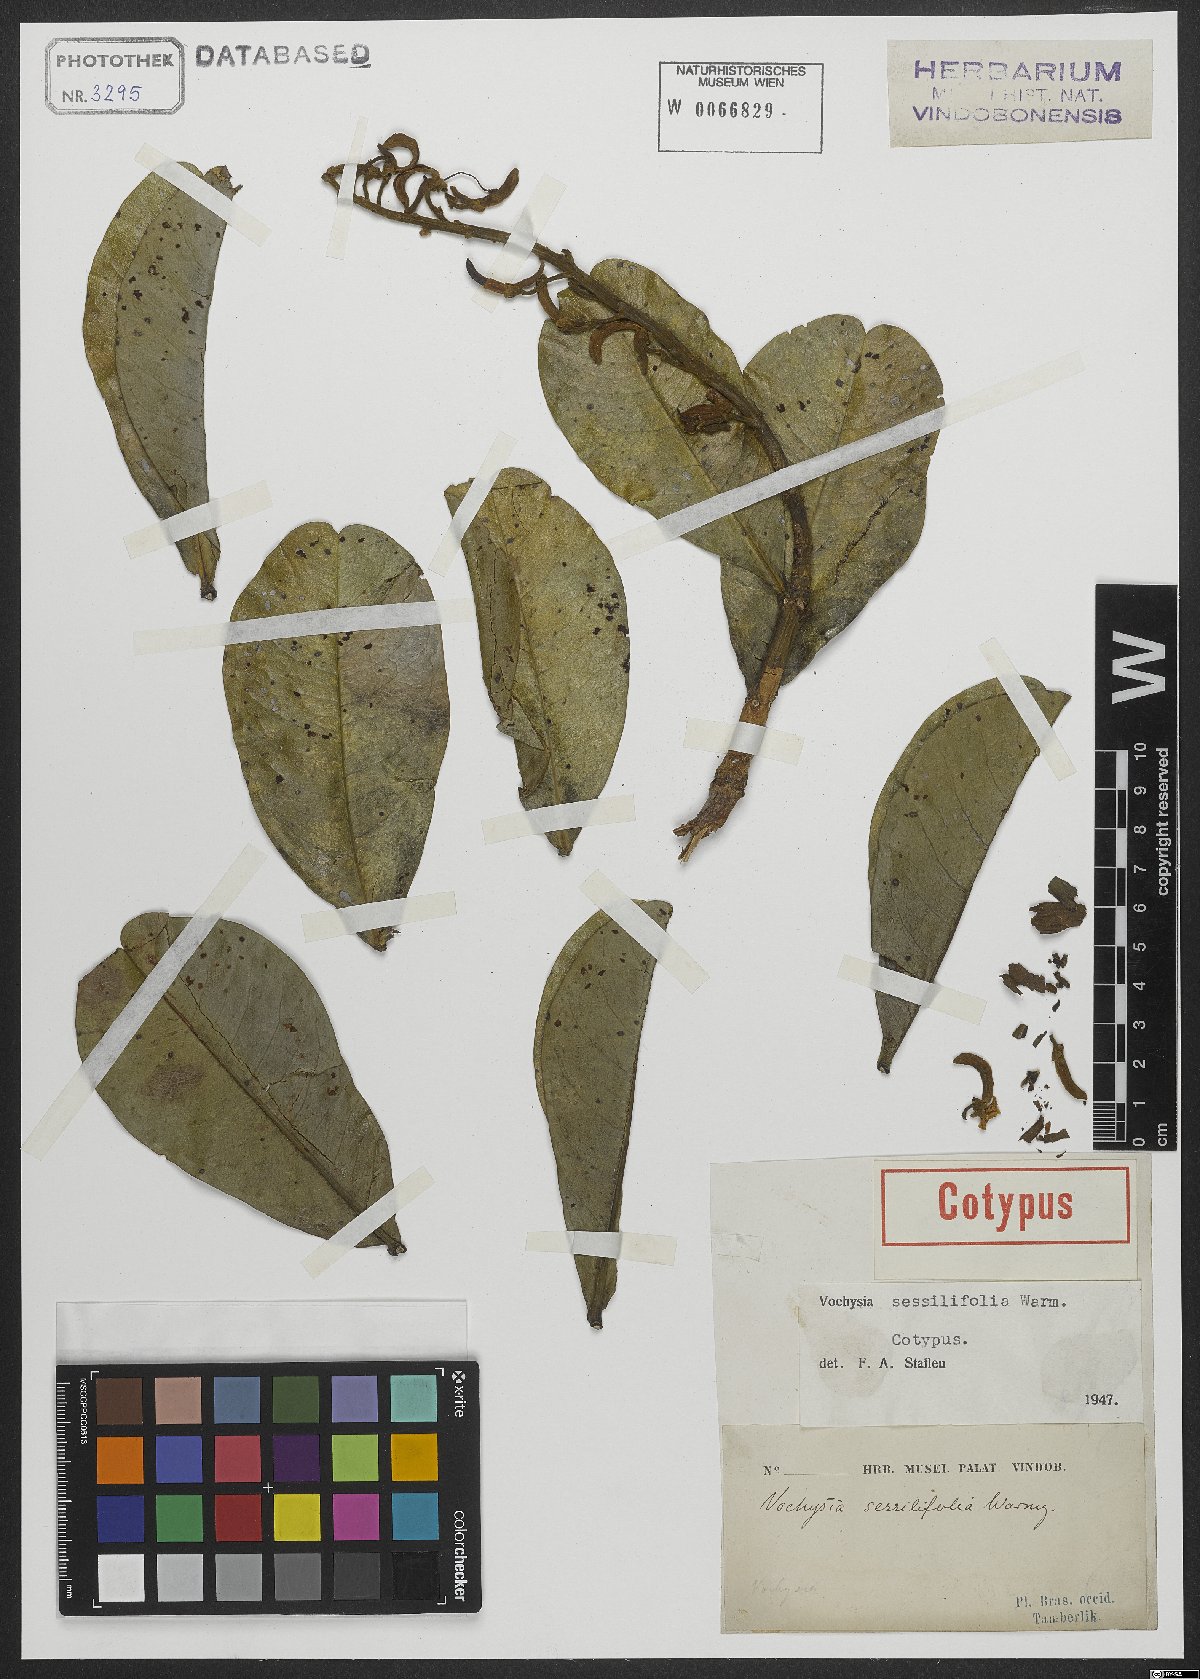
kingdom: Plantae
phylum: Tracheophyta
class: Magnoliopsida
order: Myrtales
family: Vochysiaceae
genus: Vochysia
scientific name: Vochysia sessilifolia
